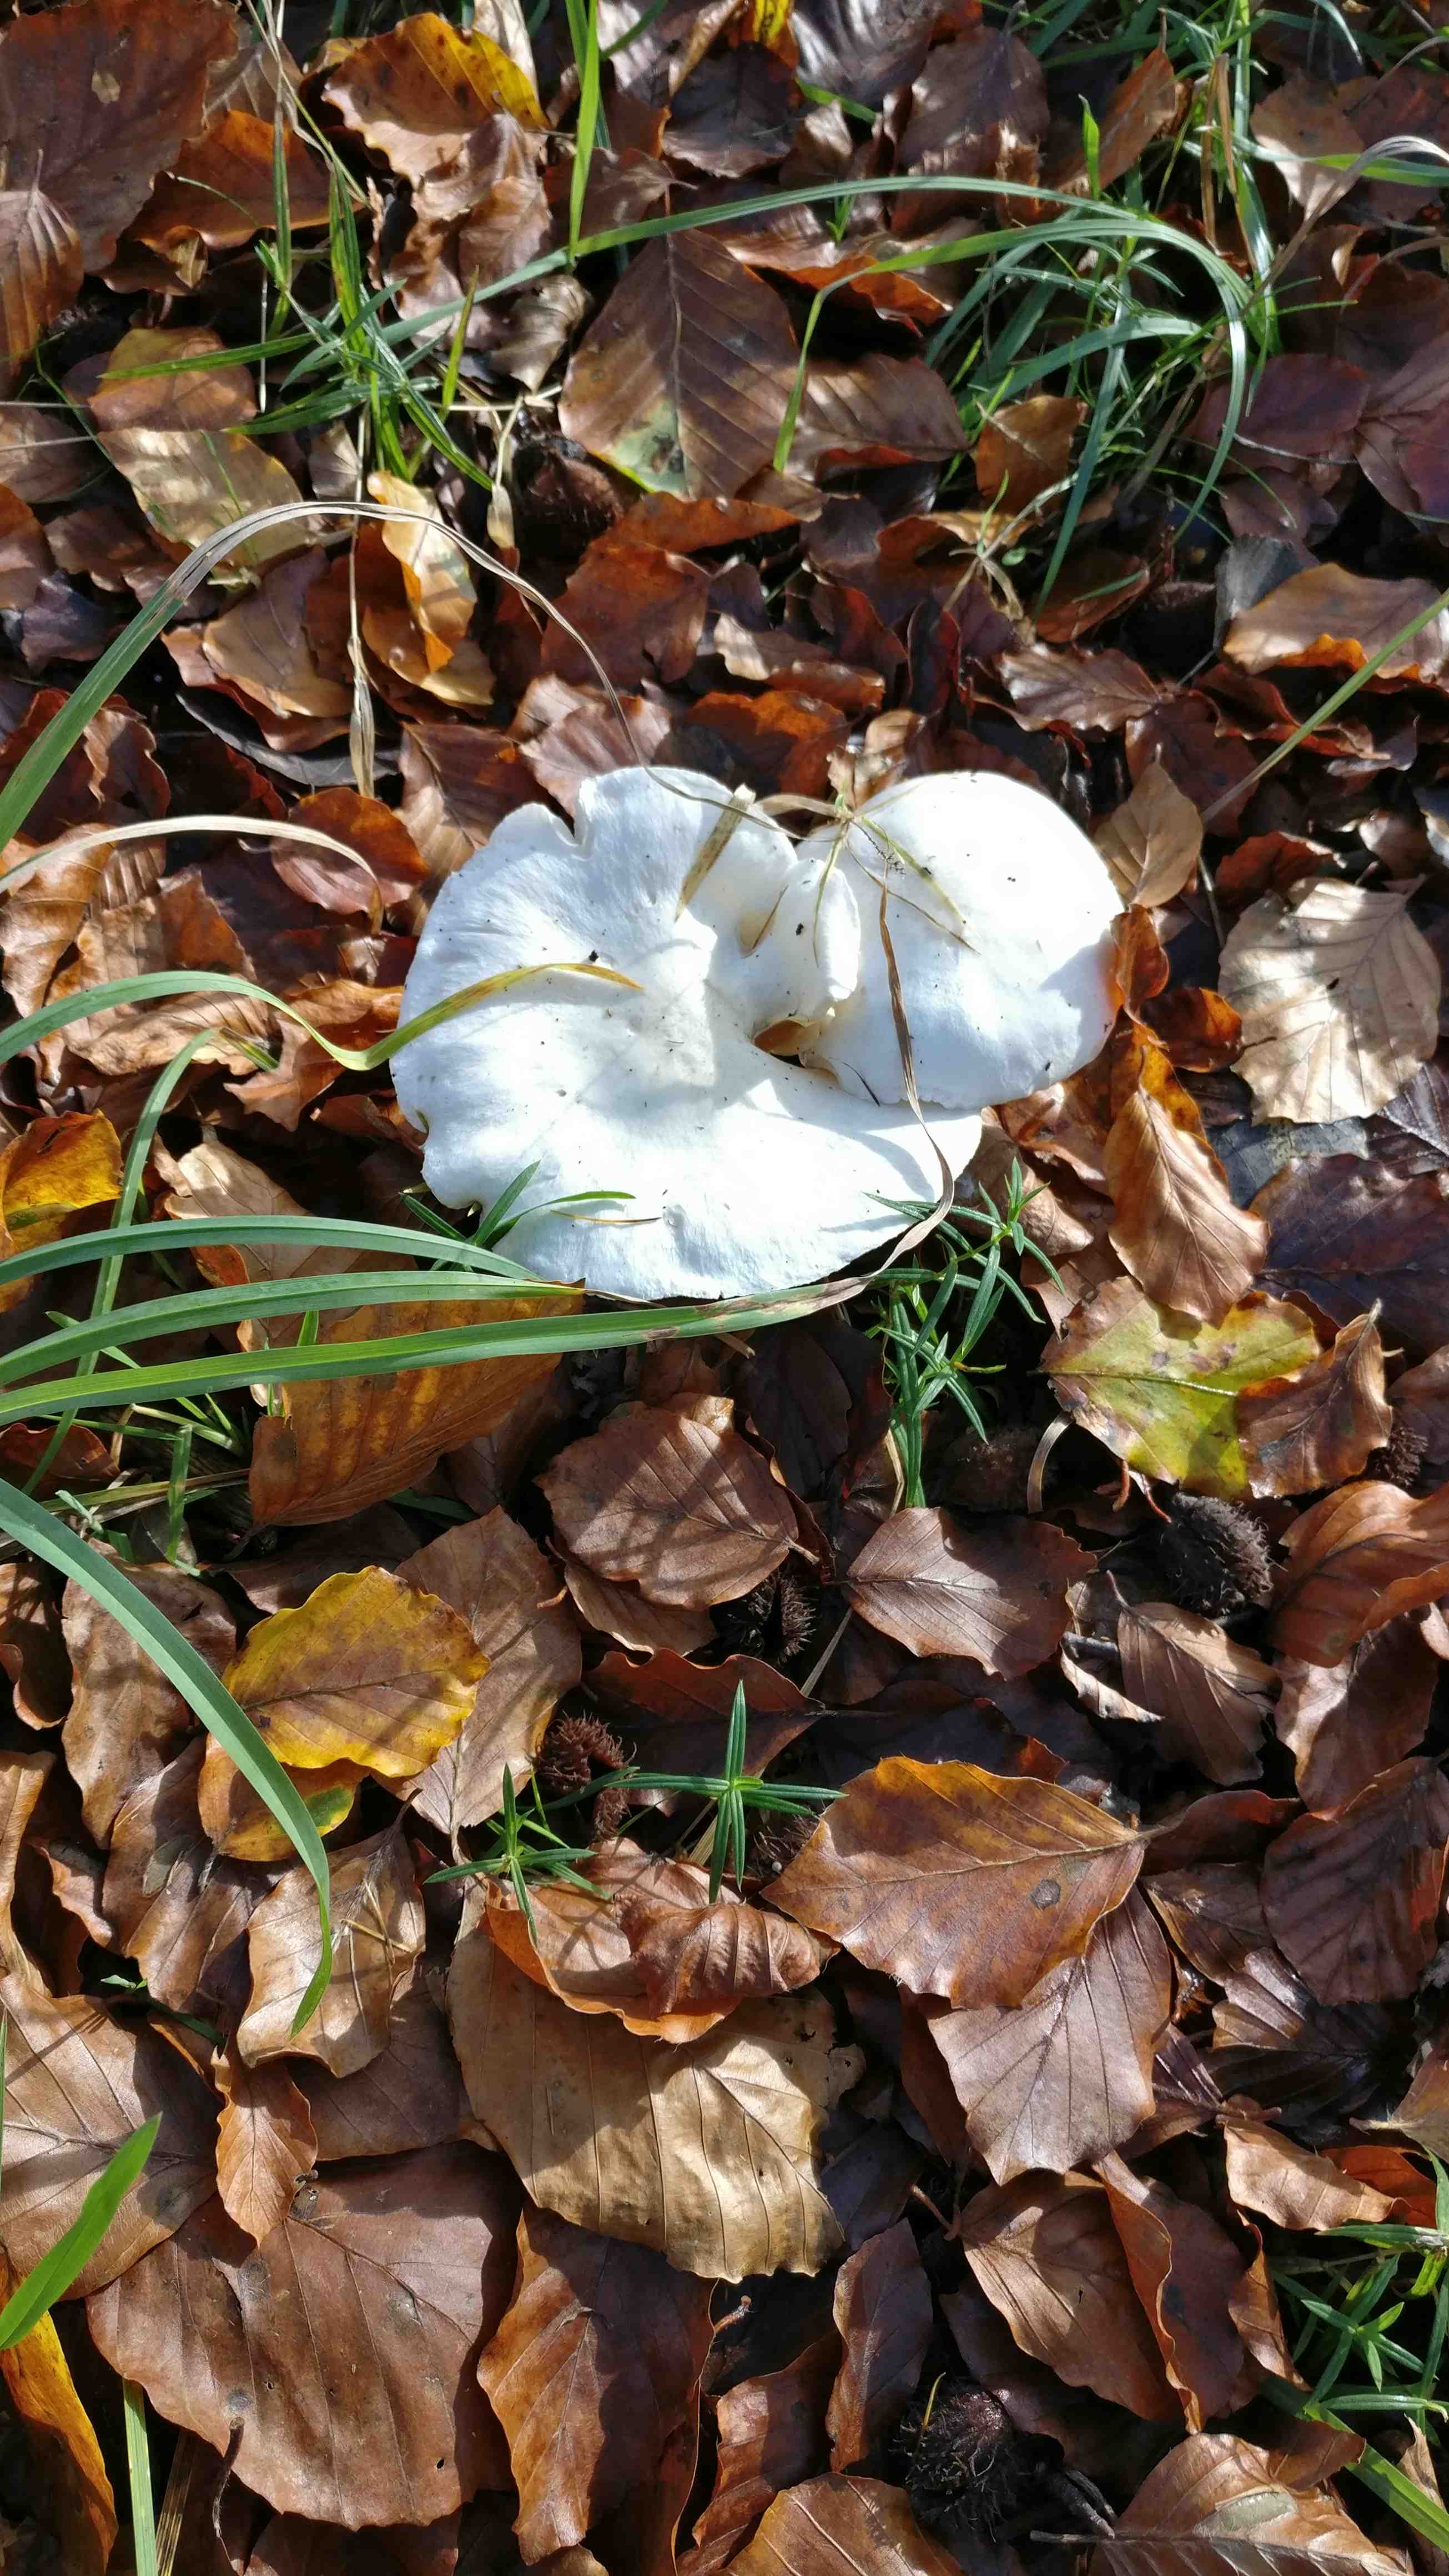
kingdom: Fungi
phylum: Basidiomycota
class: Agaricomycetes
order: Agaricales
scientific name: Agaricales
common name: champignonordenen
